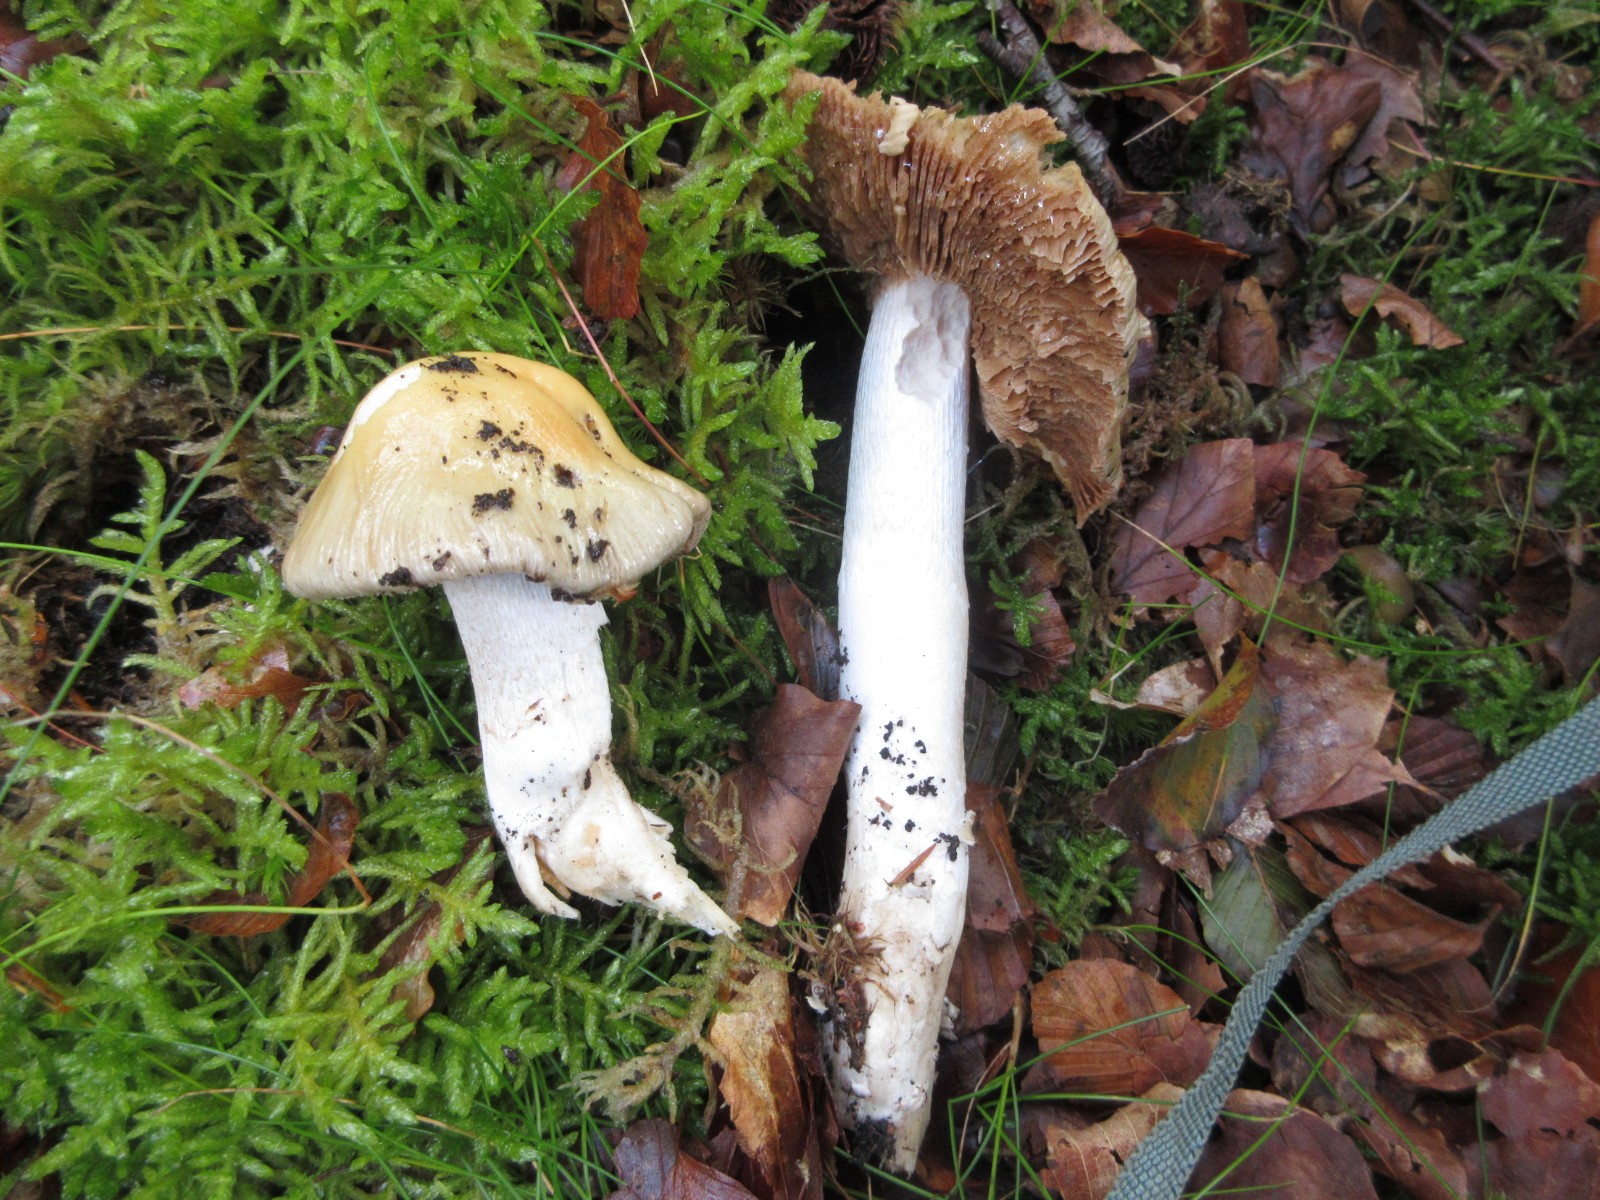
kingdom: Fungi
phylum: Basidiomycota
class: Agaricomycetes
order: Agaricales
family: Cortinariaceae
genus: Cortinarius
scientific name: Cortinarius elatior
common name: høj slørhat
